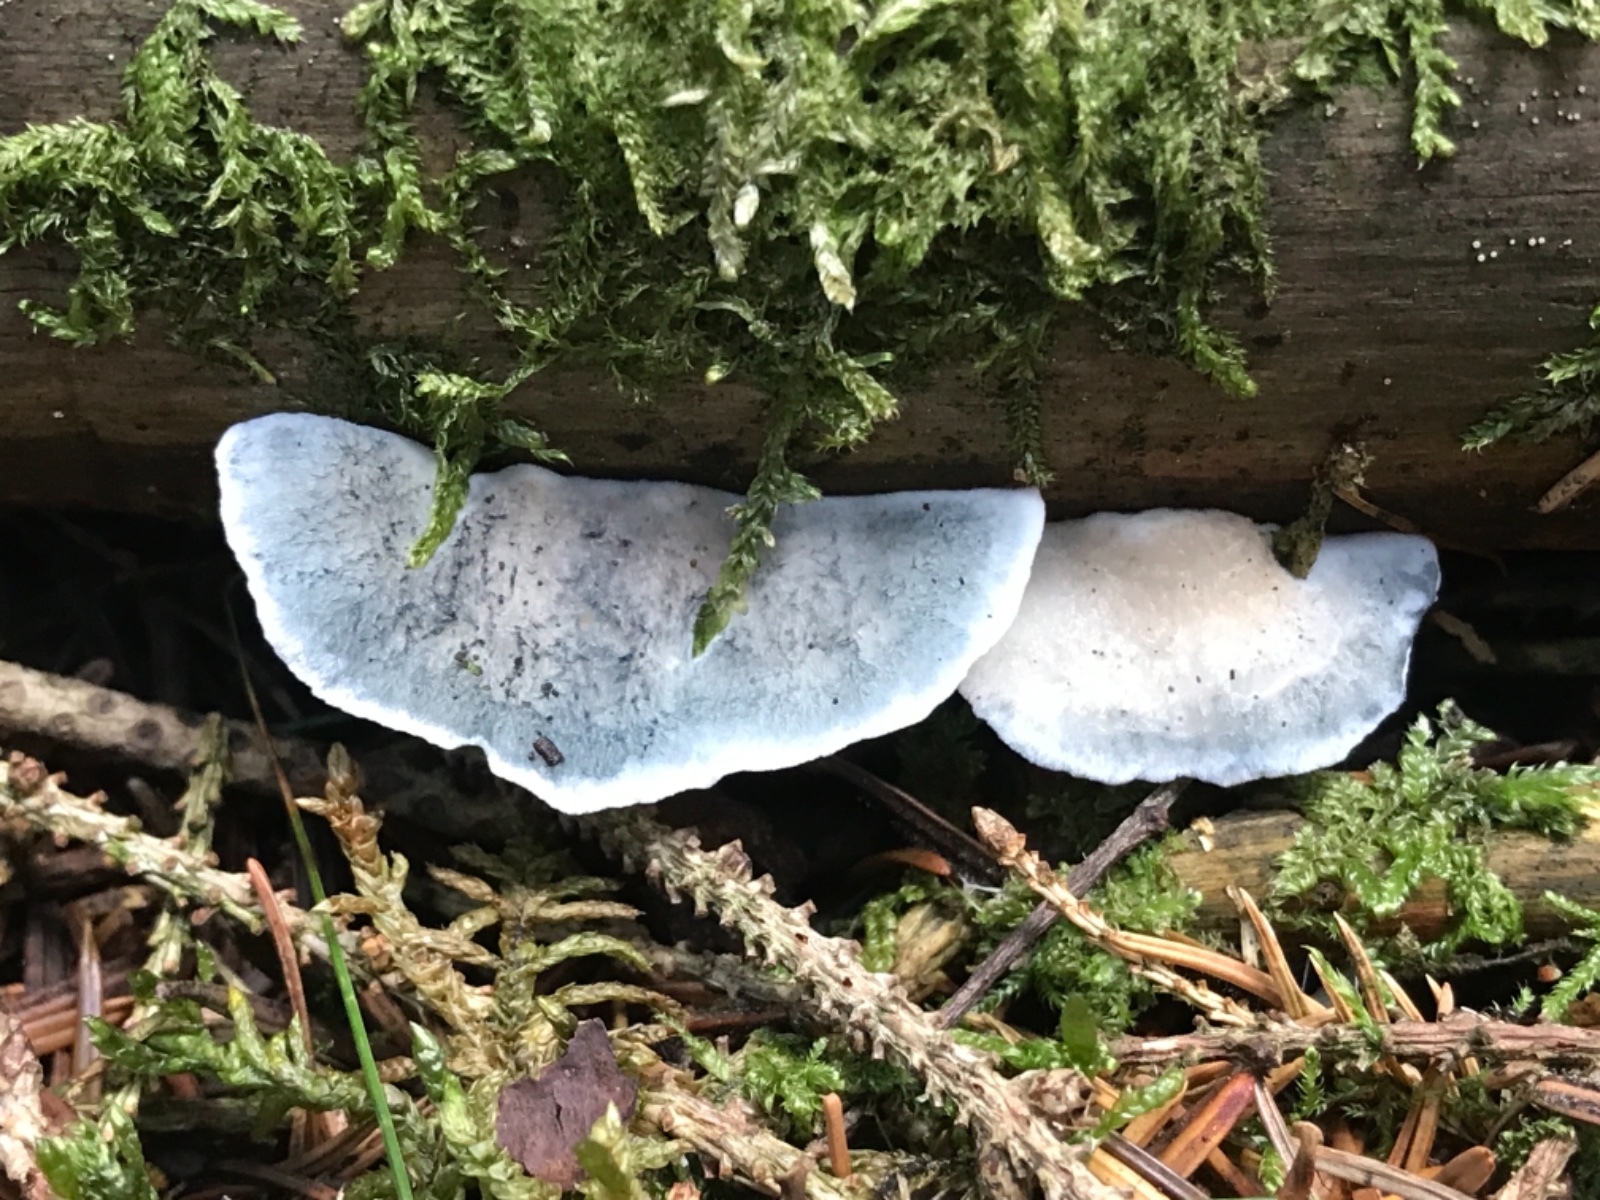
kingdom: Fungi
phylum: Basidiomycota
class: Agaricomycetes
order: Polyporales
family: Polyporaceae
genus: Cyanosporus
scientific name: Cyanosporus caesius
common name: blålig kødporesvamp
